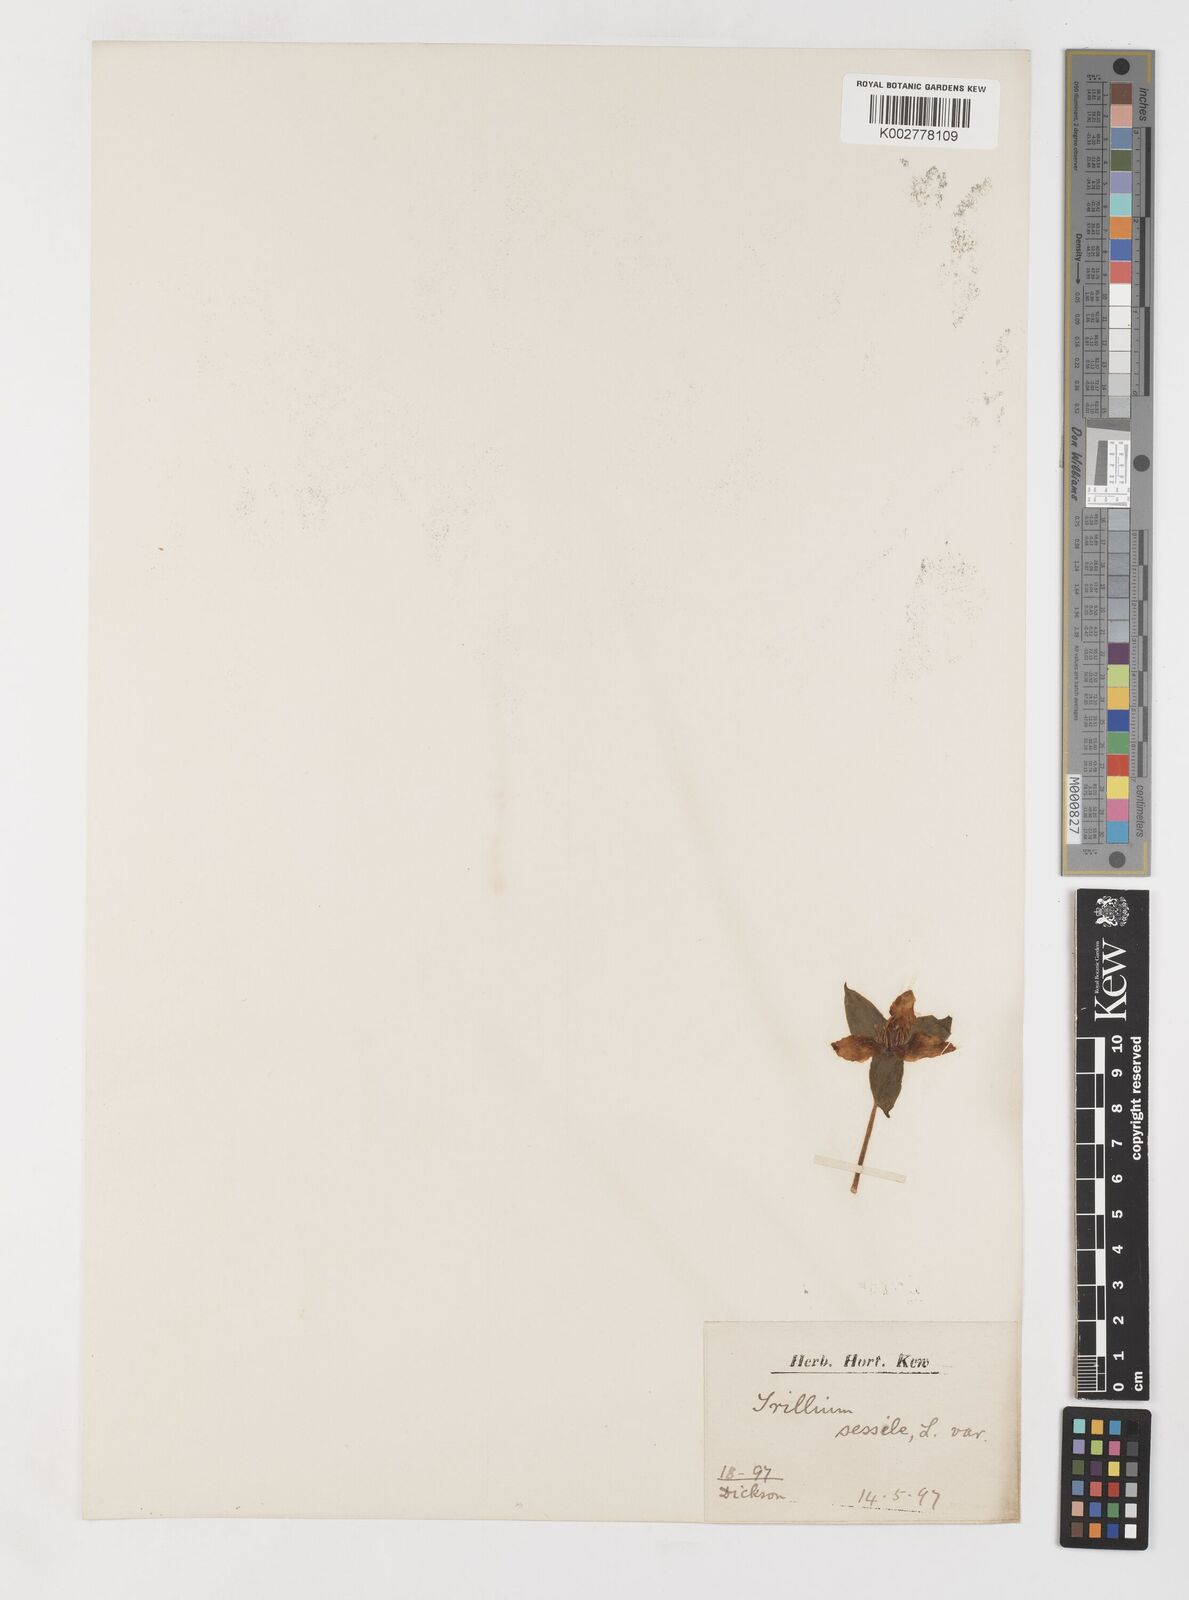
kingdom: Plantae
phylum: Tracheophyta
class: Liliopsida
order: Liliales
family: Melanthiaceae
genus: Trillium
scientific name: Trillium sessile
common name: Sessile trillium
